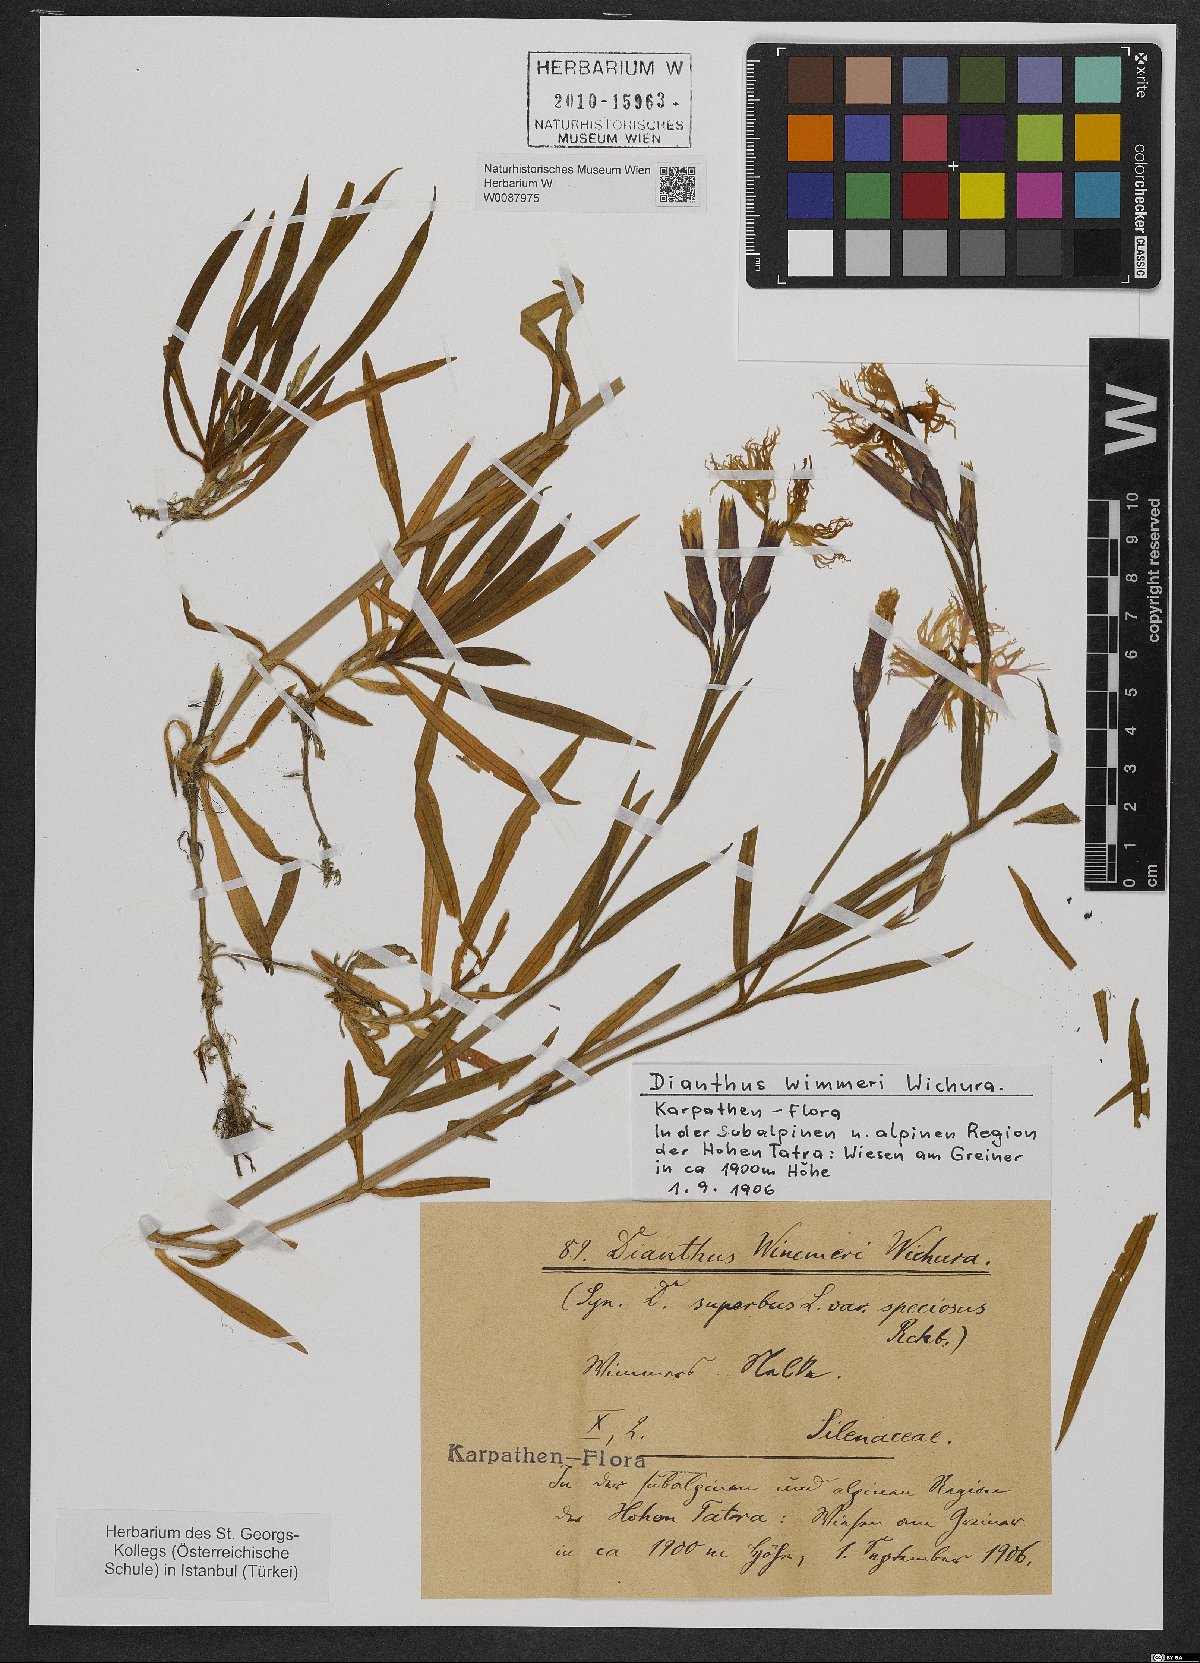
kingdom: Plantae
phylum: Tracheophyta
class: Magnoliopsida
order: Caryophyllales
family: Caryophyllaceae
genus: Dianthus
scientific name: Dianthus superbus
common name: Fringed pink
